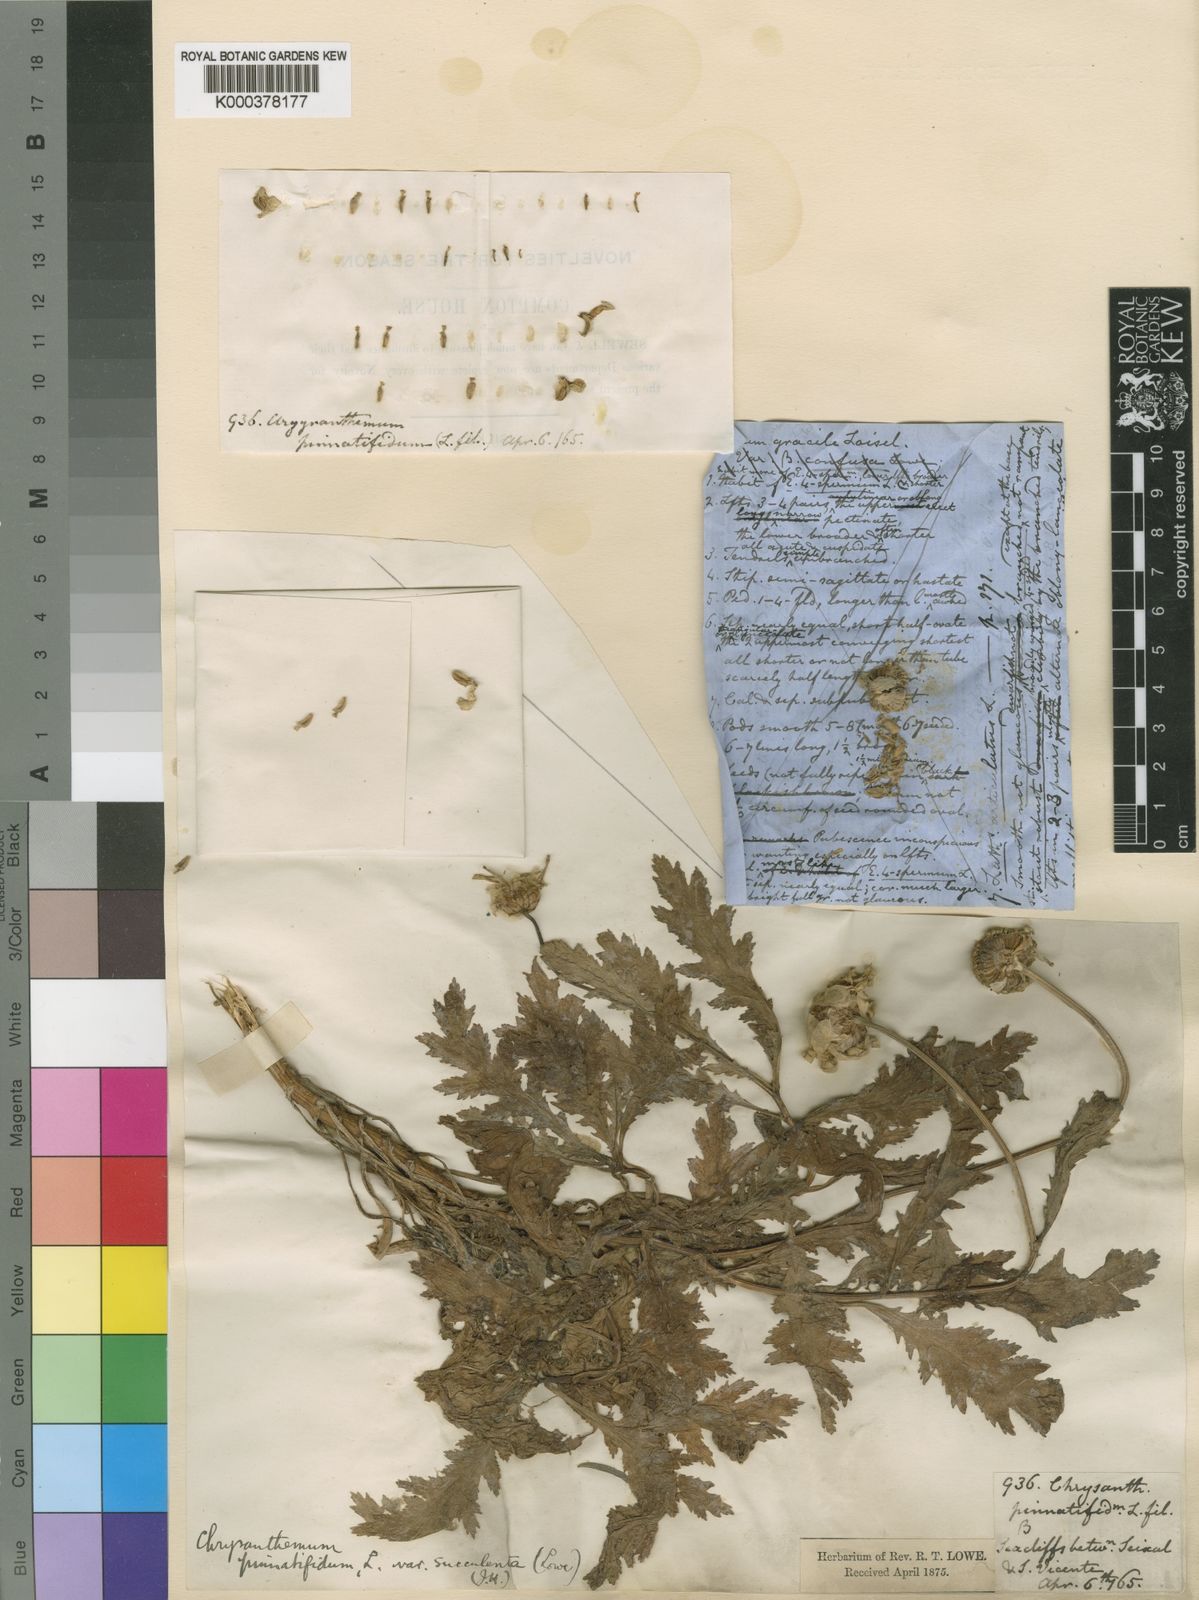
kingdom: Plantae
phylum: Tracheophyta
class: Magnoliopsida
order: Asterales
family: Asteraceae
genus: Argyranthemum
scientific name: Argyranthemum pinnatifidum
